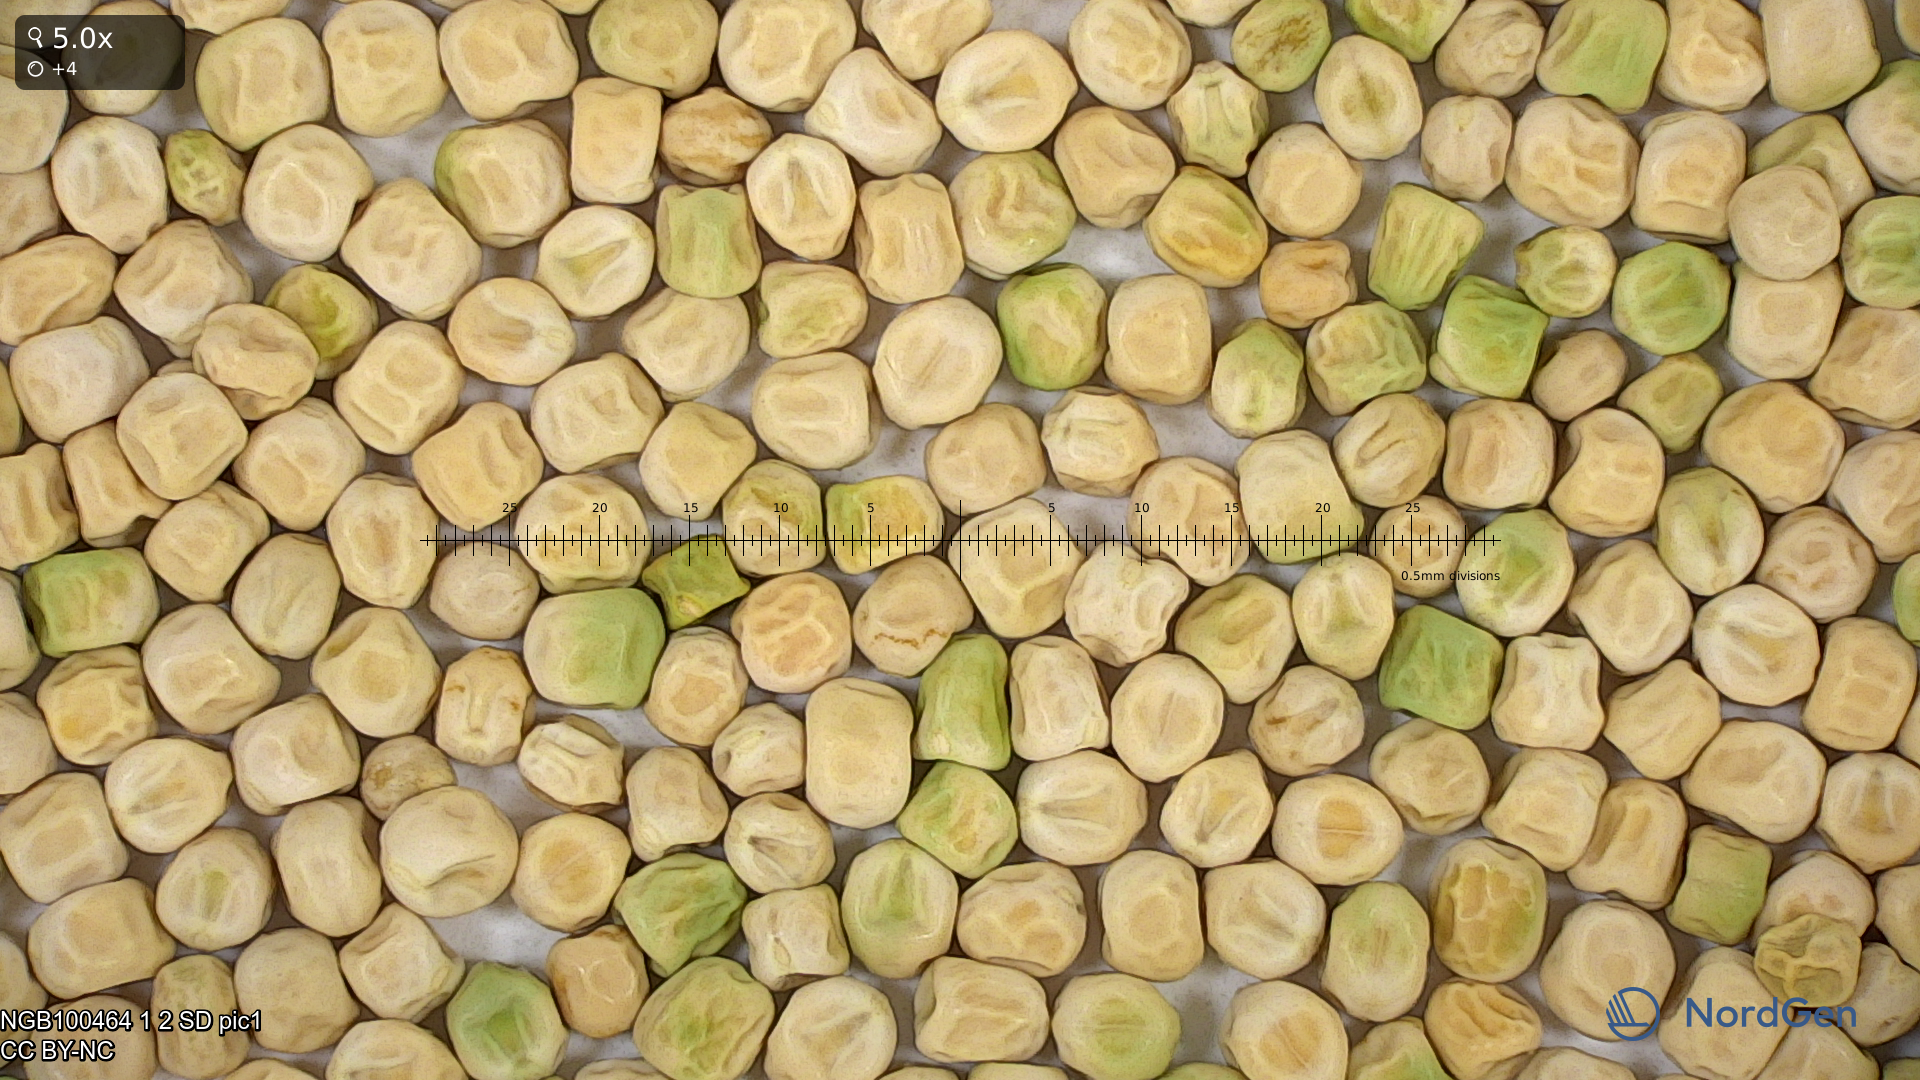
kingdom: Plantae
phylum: Tracheophyta
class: Magnoliopsida
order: Fabales
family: Fabaceae
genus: Lathyrus
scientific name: Lathyrus oleraceus
